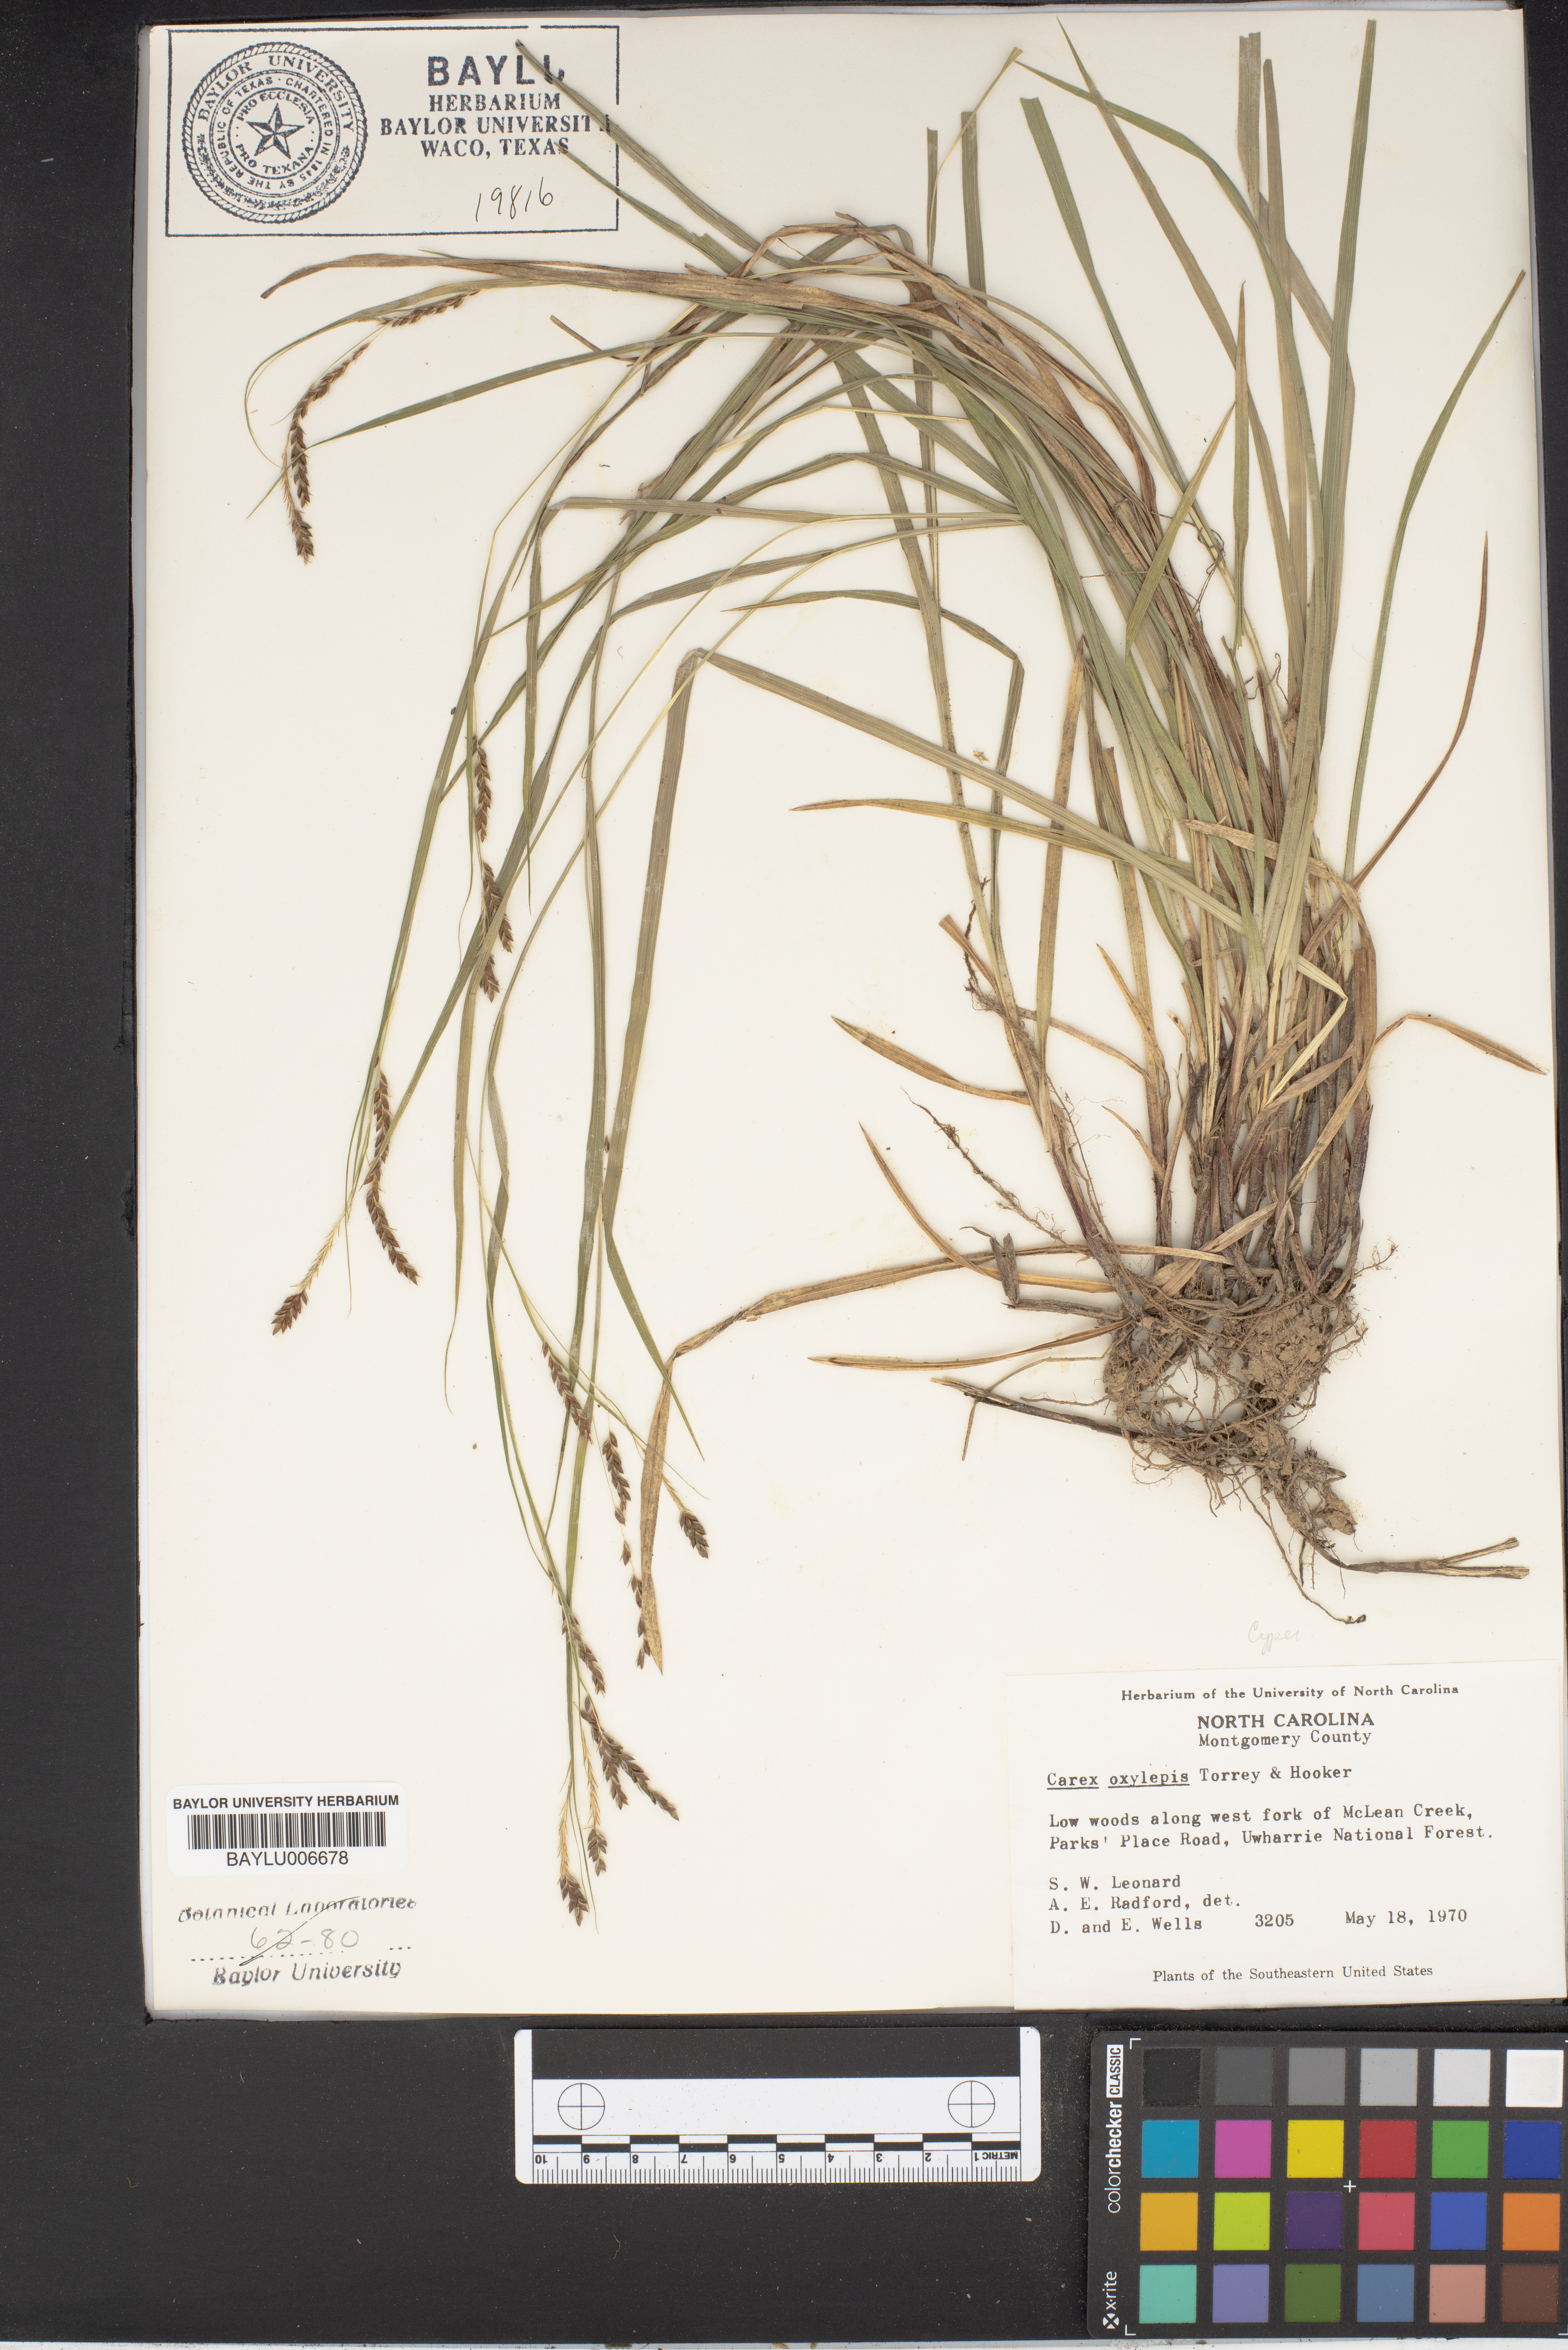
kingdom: Plantae
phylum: Tracheophyta
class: Liliopsida
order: Poales
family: Cyperaceae
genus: Carex
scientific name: Carex oxylepis
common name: Sharpscale sedge
